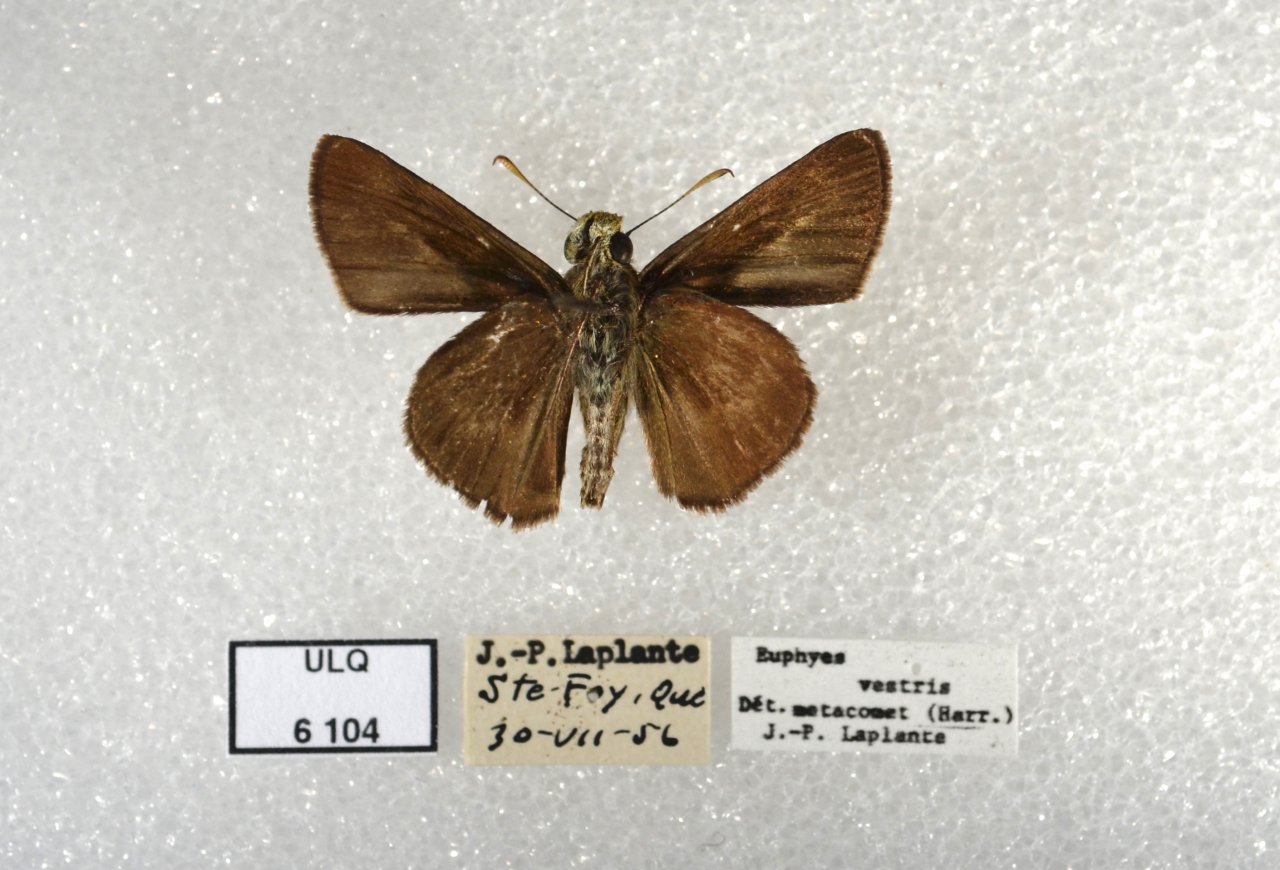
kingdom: Animalia
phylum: Arthropoda
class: Insecta
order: Lepidoptera
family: Hesperiidae
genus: Euphyes
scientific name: Euphyes vestris
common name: Dun Skipper
